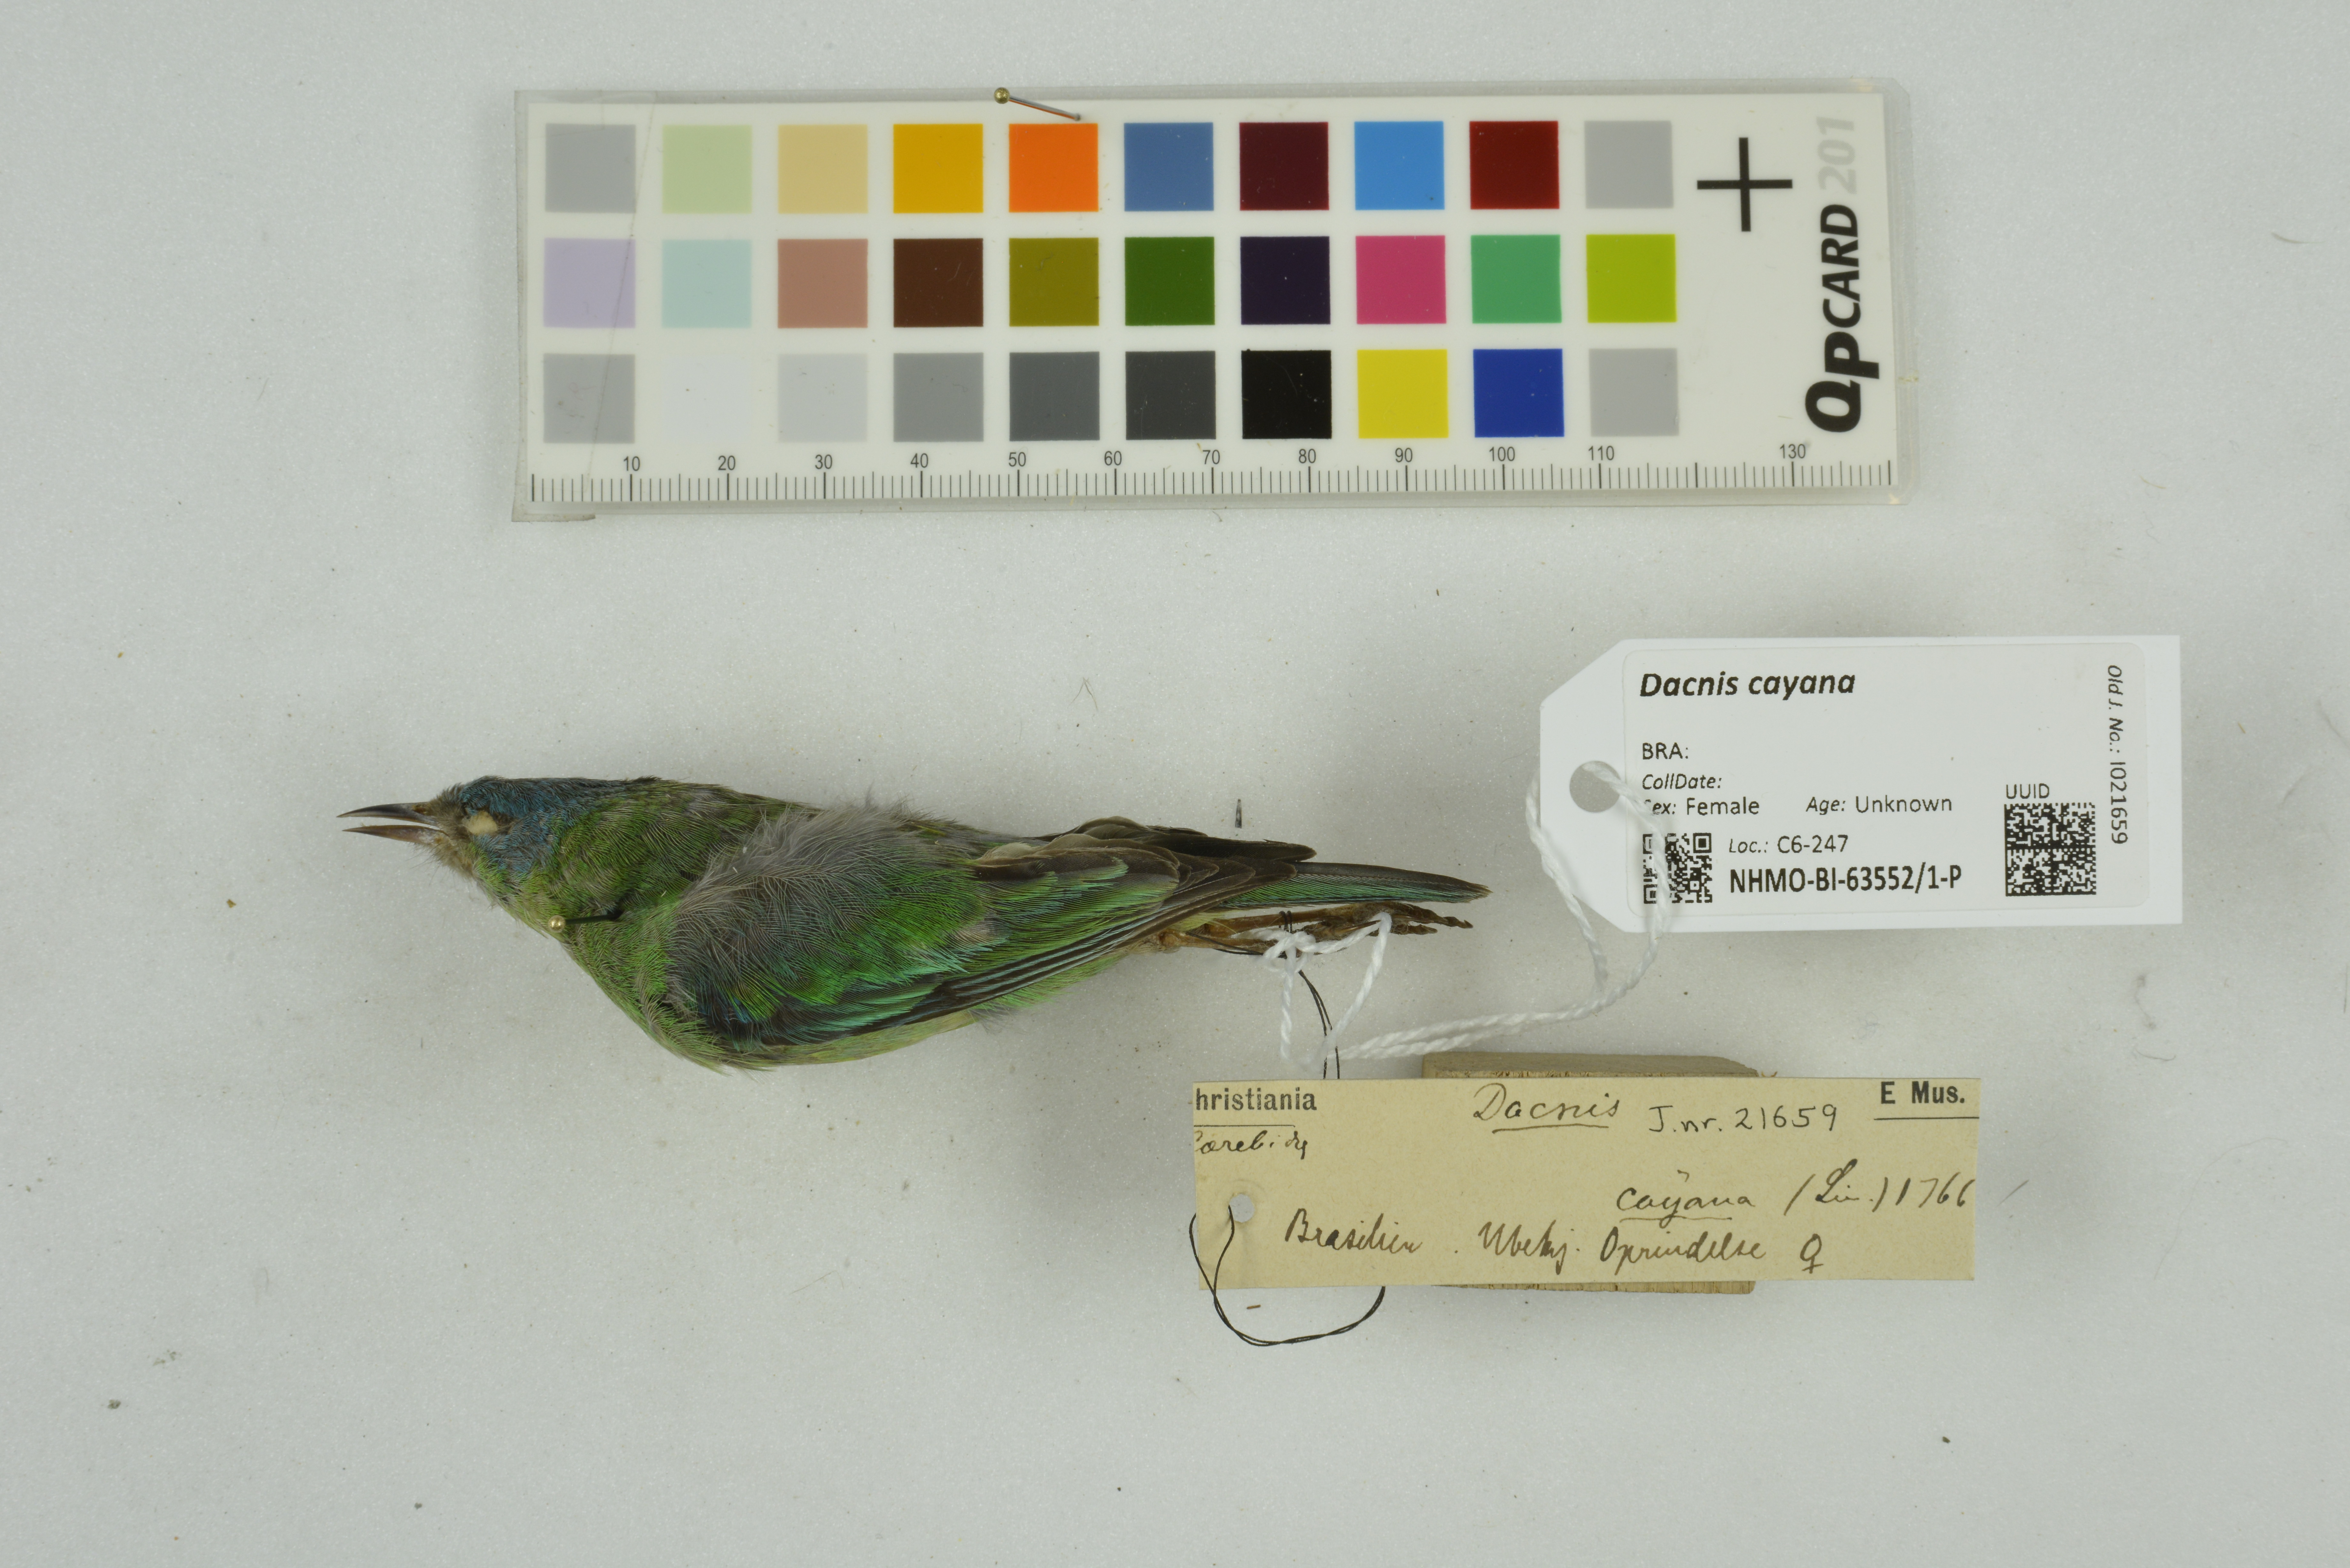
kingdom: Animalia
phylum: Chordata
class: Aves
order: Passeriformes
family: Thraupidae
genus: Dacnis
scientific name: Dacnis cayana
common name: Blue dacnis
